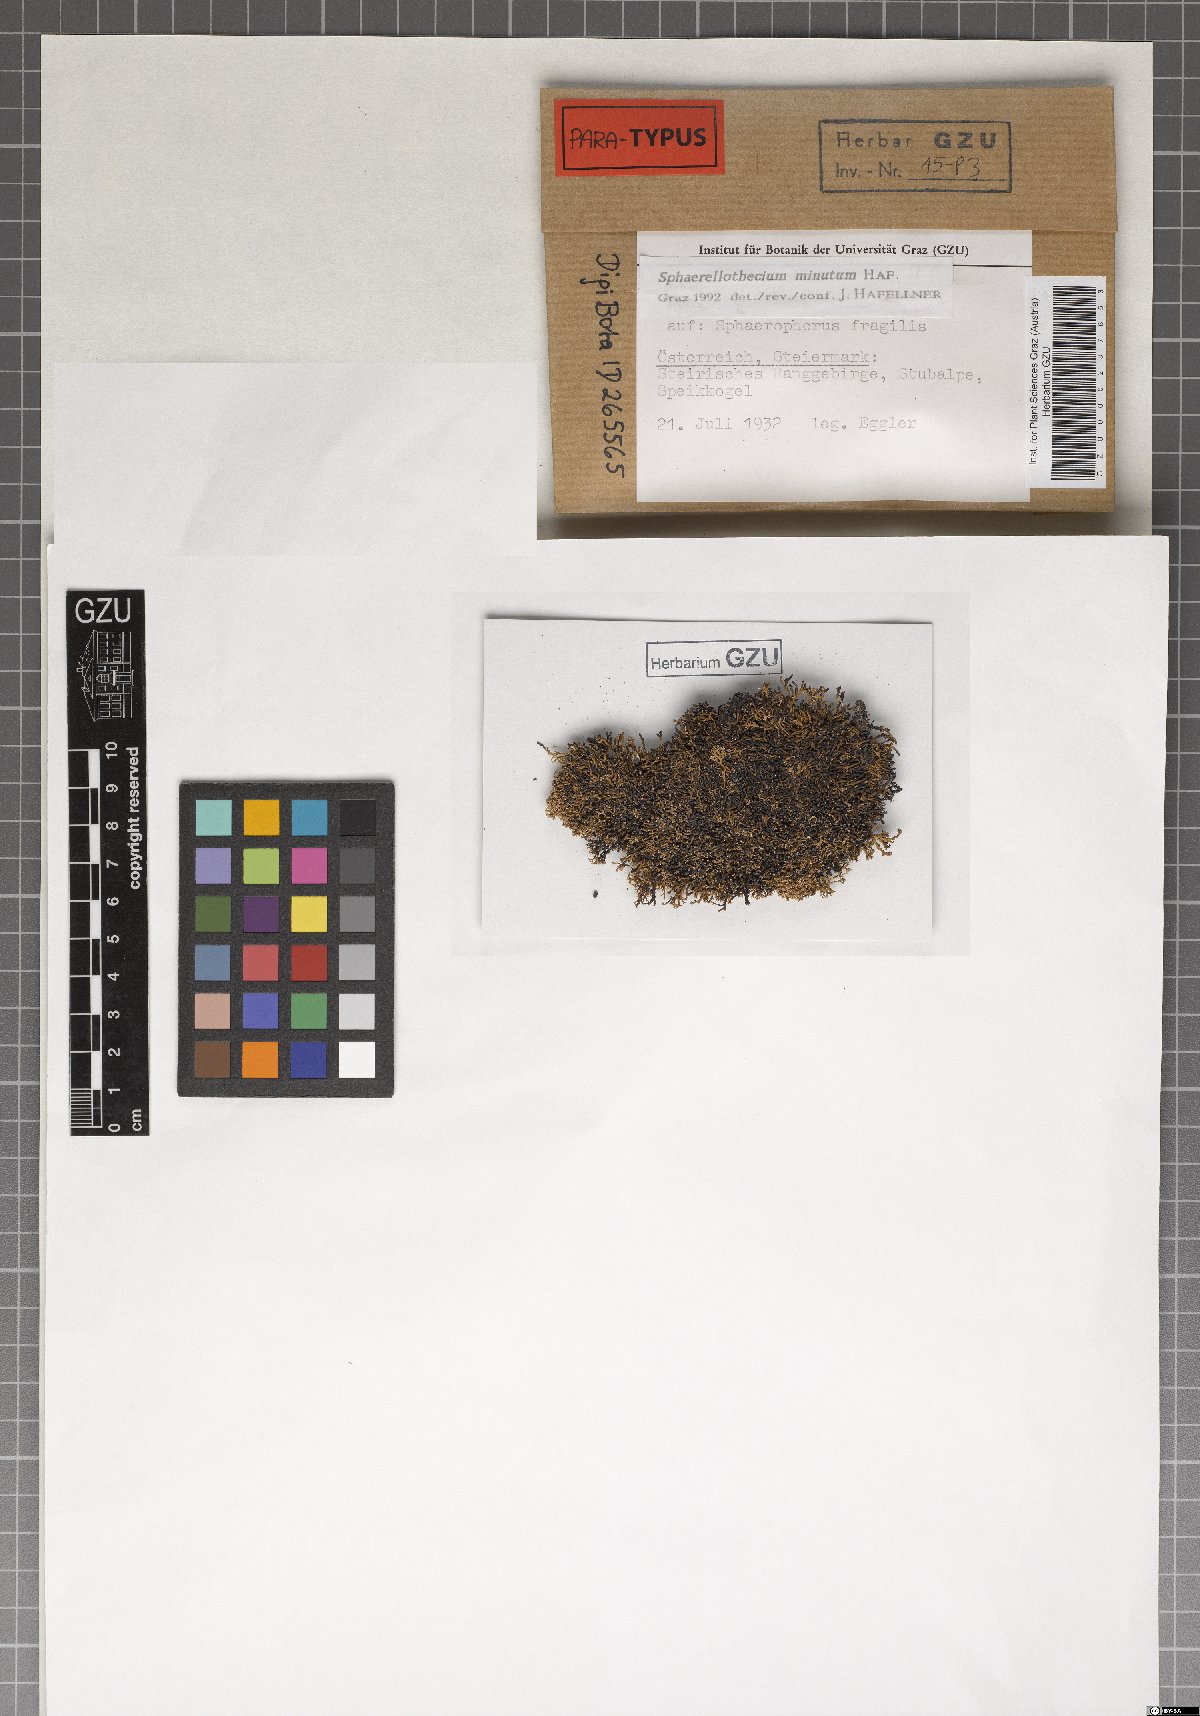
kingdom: Fungi
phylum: Ascomycota
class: Dothideomycetes
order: Mycosphaerellales
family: Mycosphaerellaceae
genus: Sphaerellothecium
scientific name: Sphaerellothecium minutum
